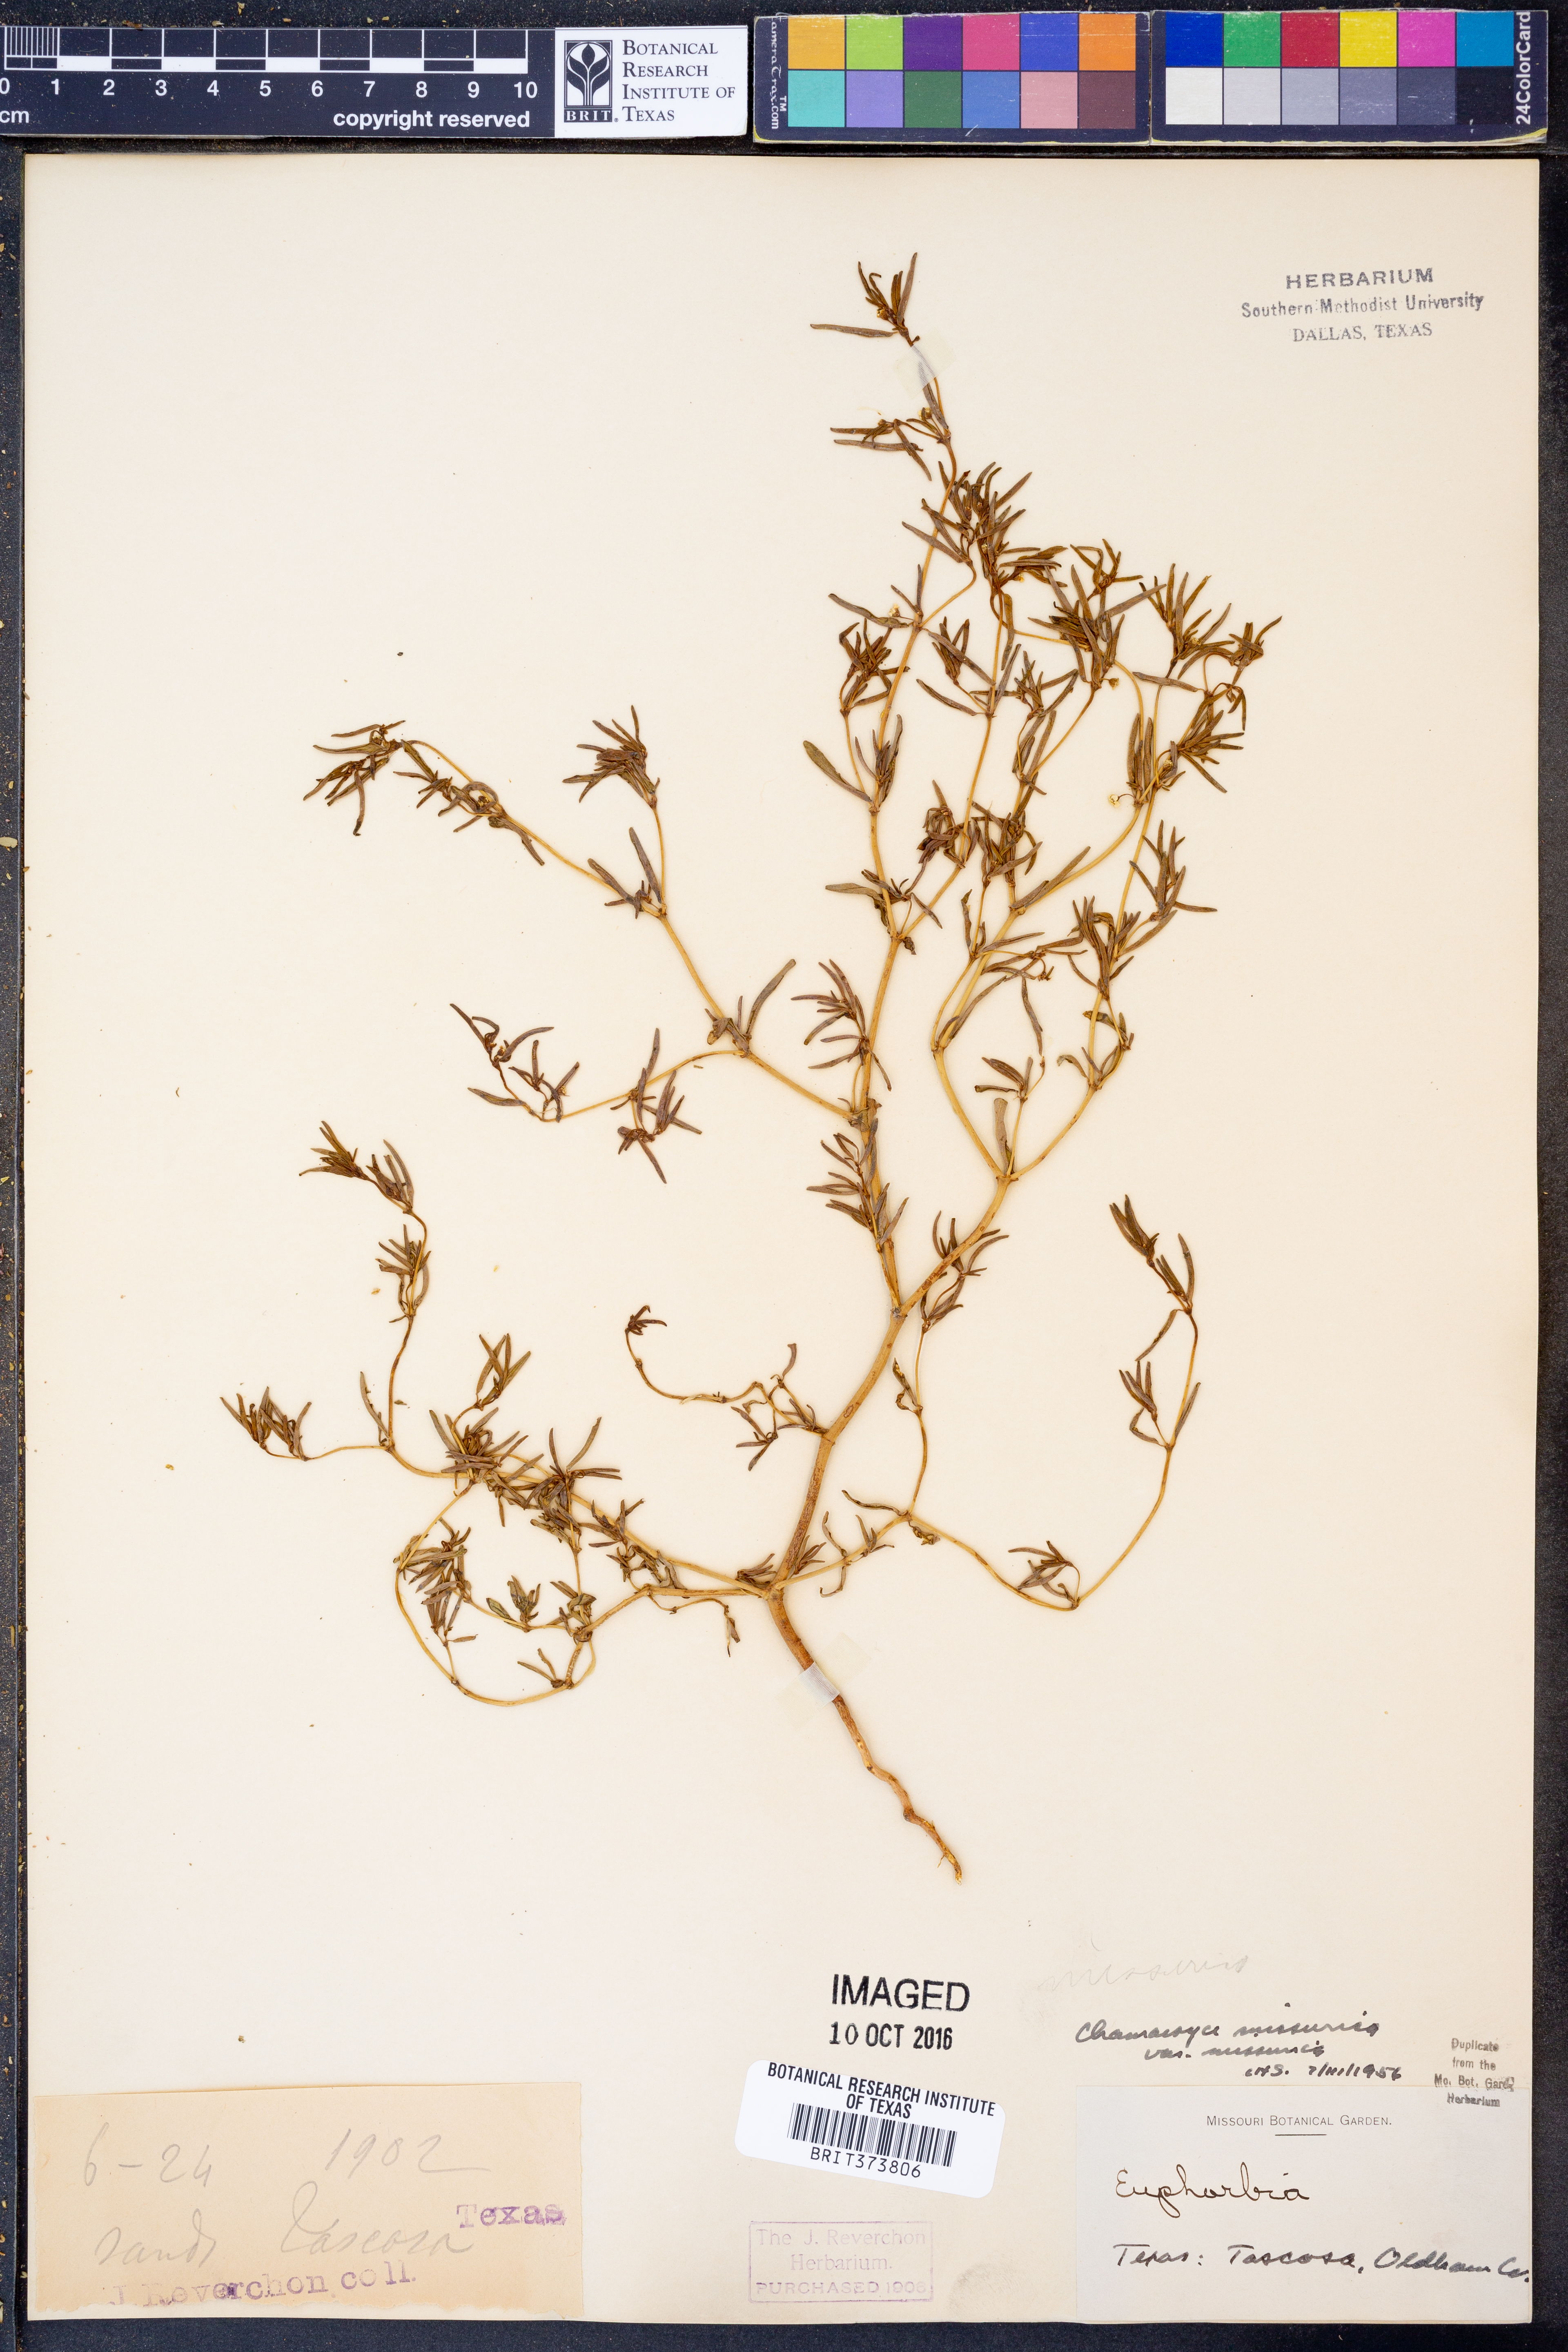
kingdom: Plantae
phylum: Tracheophyta
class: Magnoliopsida
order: Malpighiales
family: Euphorbiaceae
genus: Euphorbia
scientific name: Euphorbia missurica
